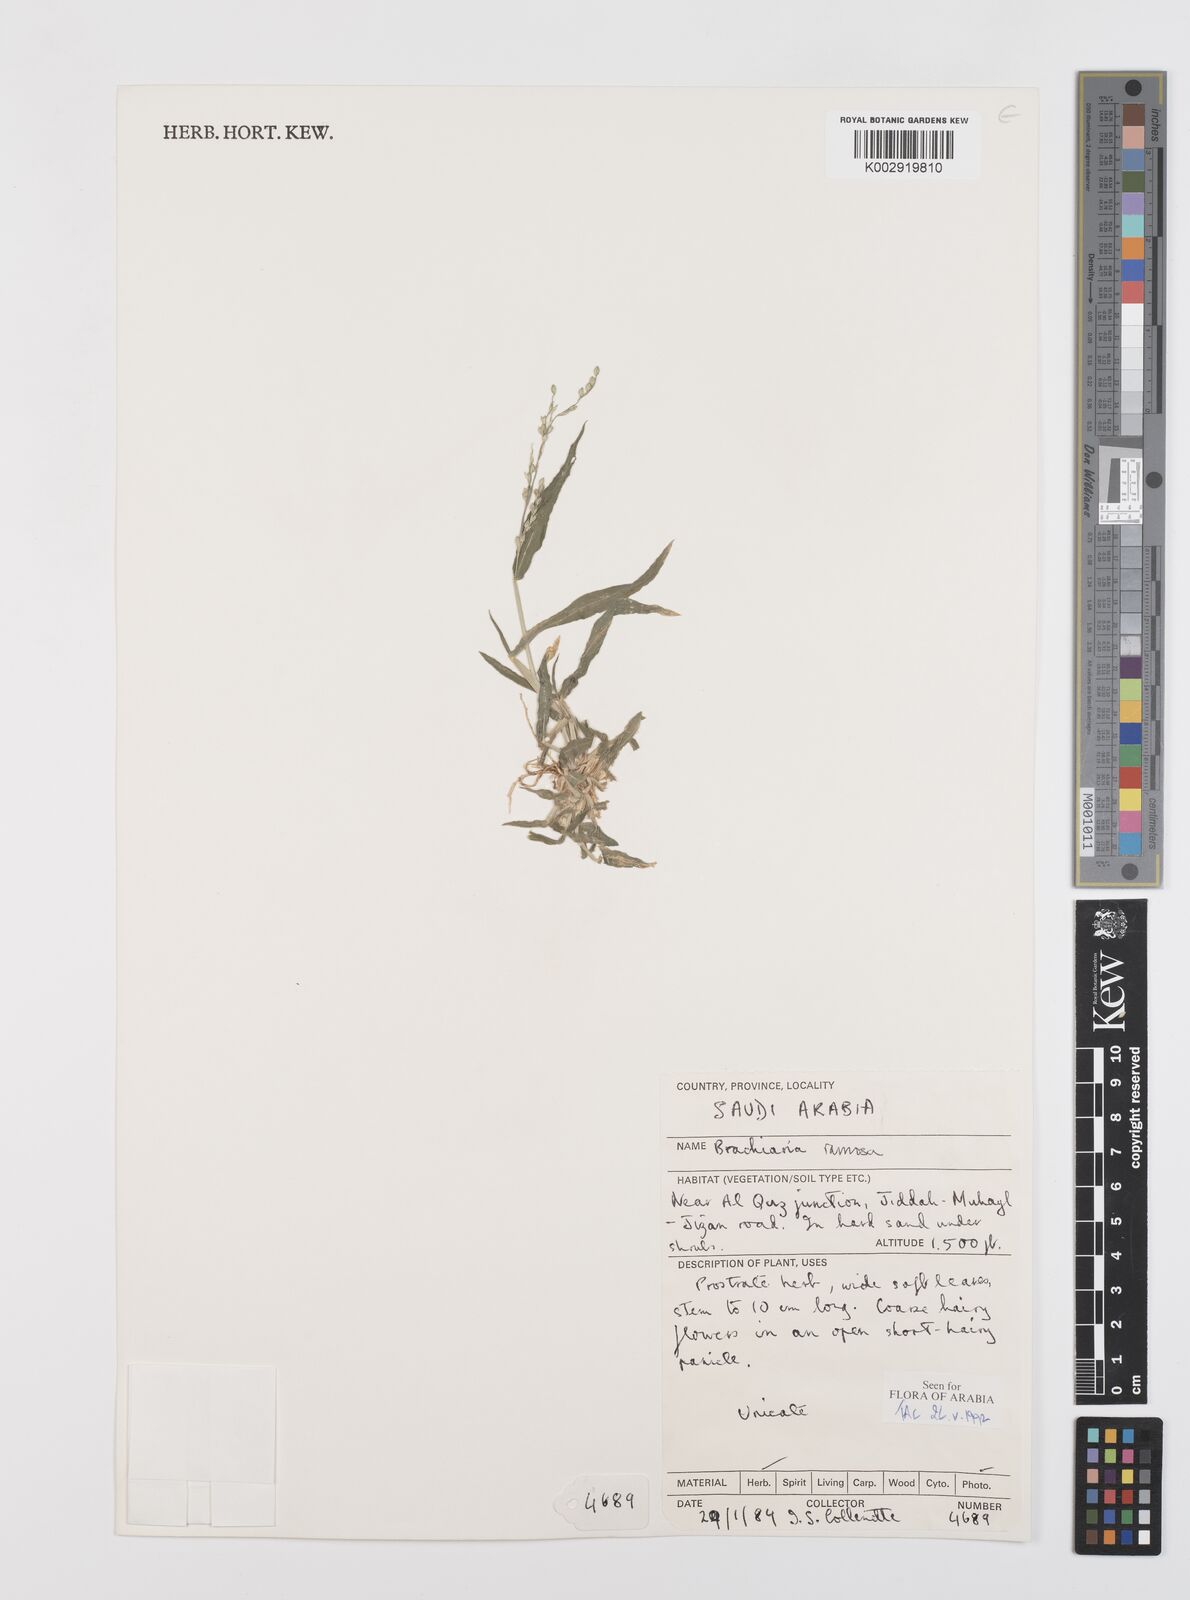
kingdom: Plantae
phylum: Tracheophyta
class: Liliopsida
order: Poales
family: Poaceae
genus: Urochloa
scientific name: Urochloa ramosa
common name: Browntop millet
